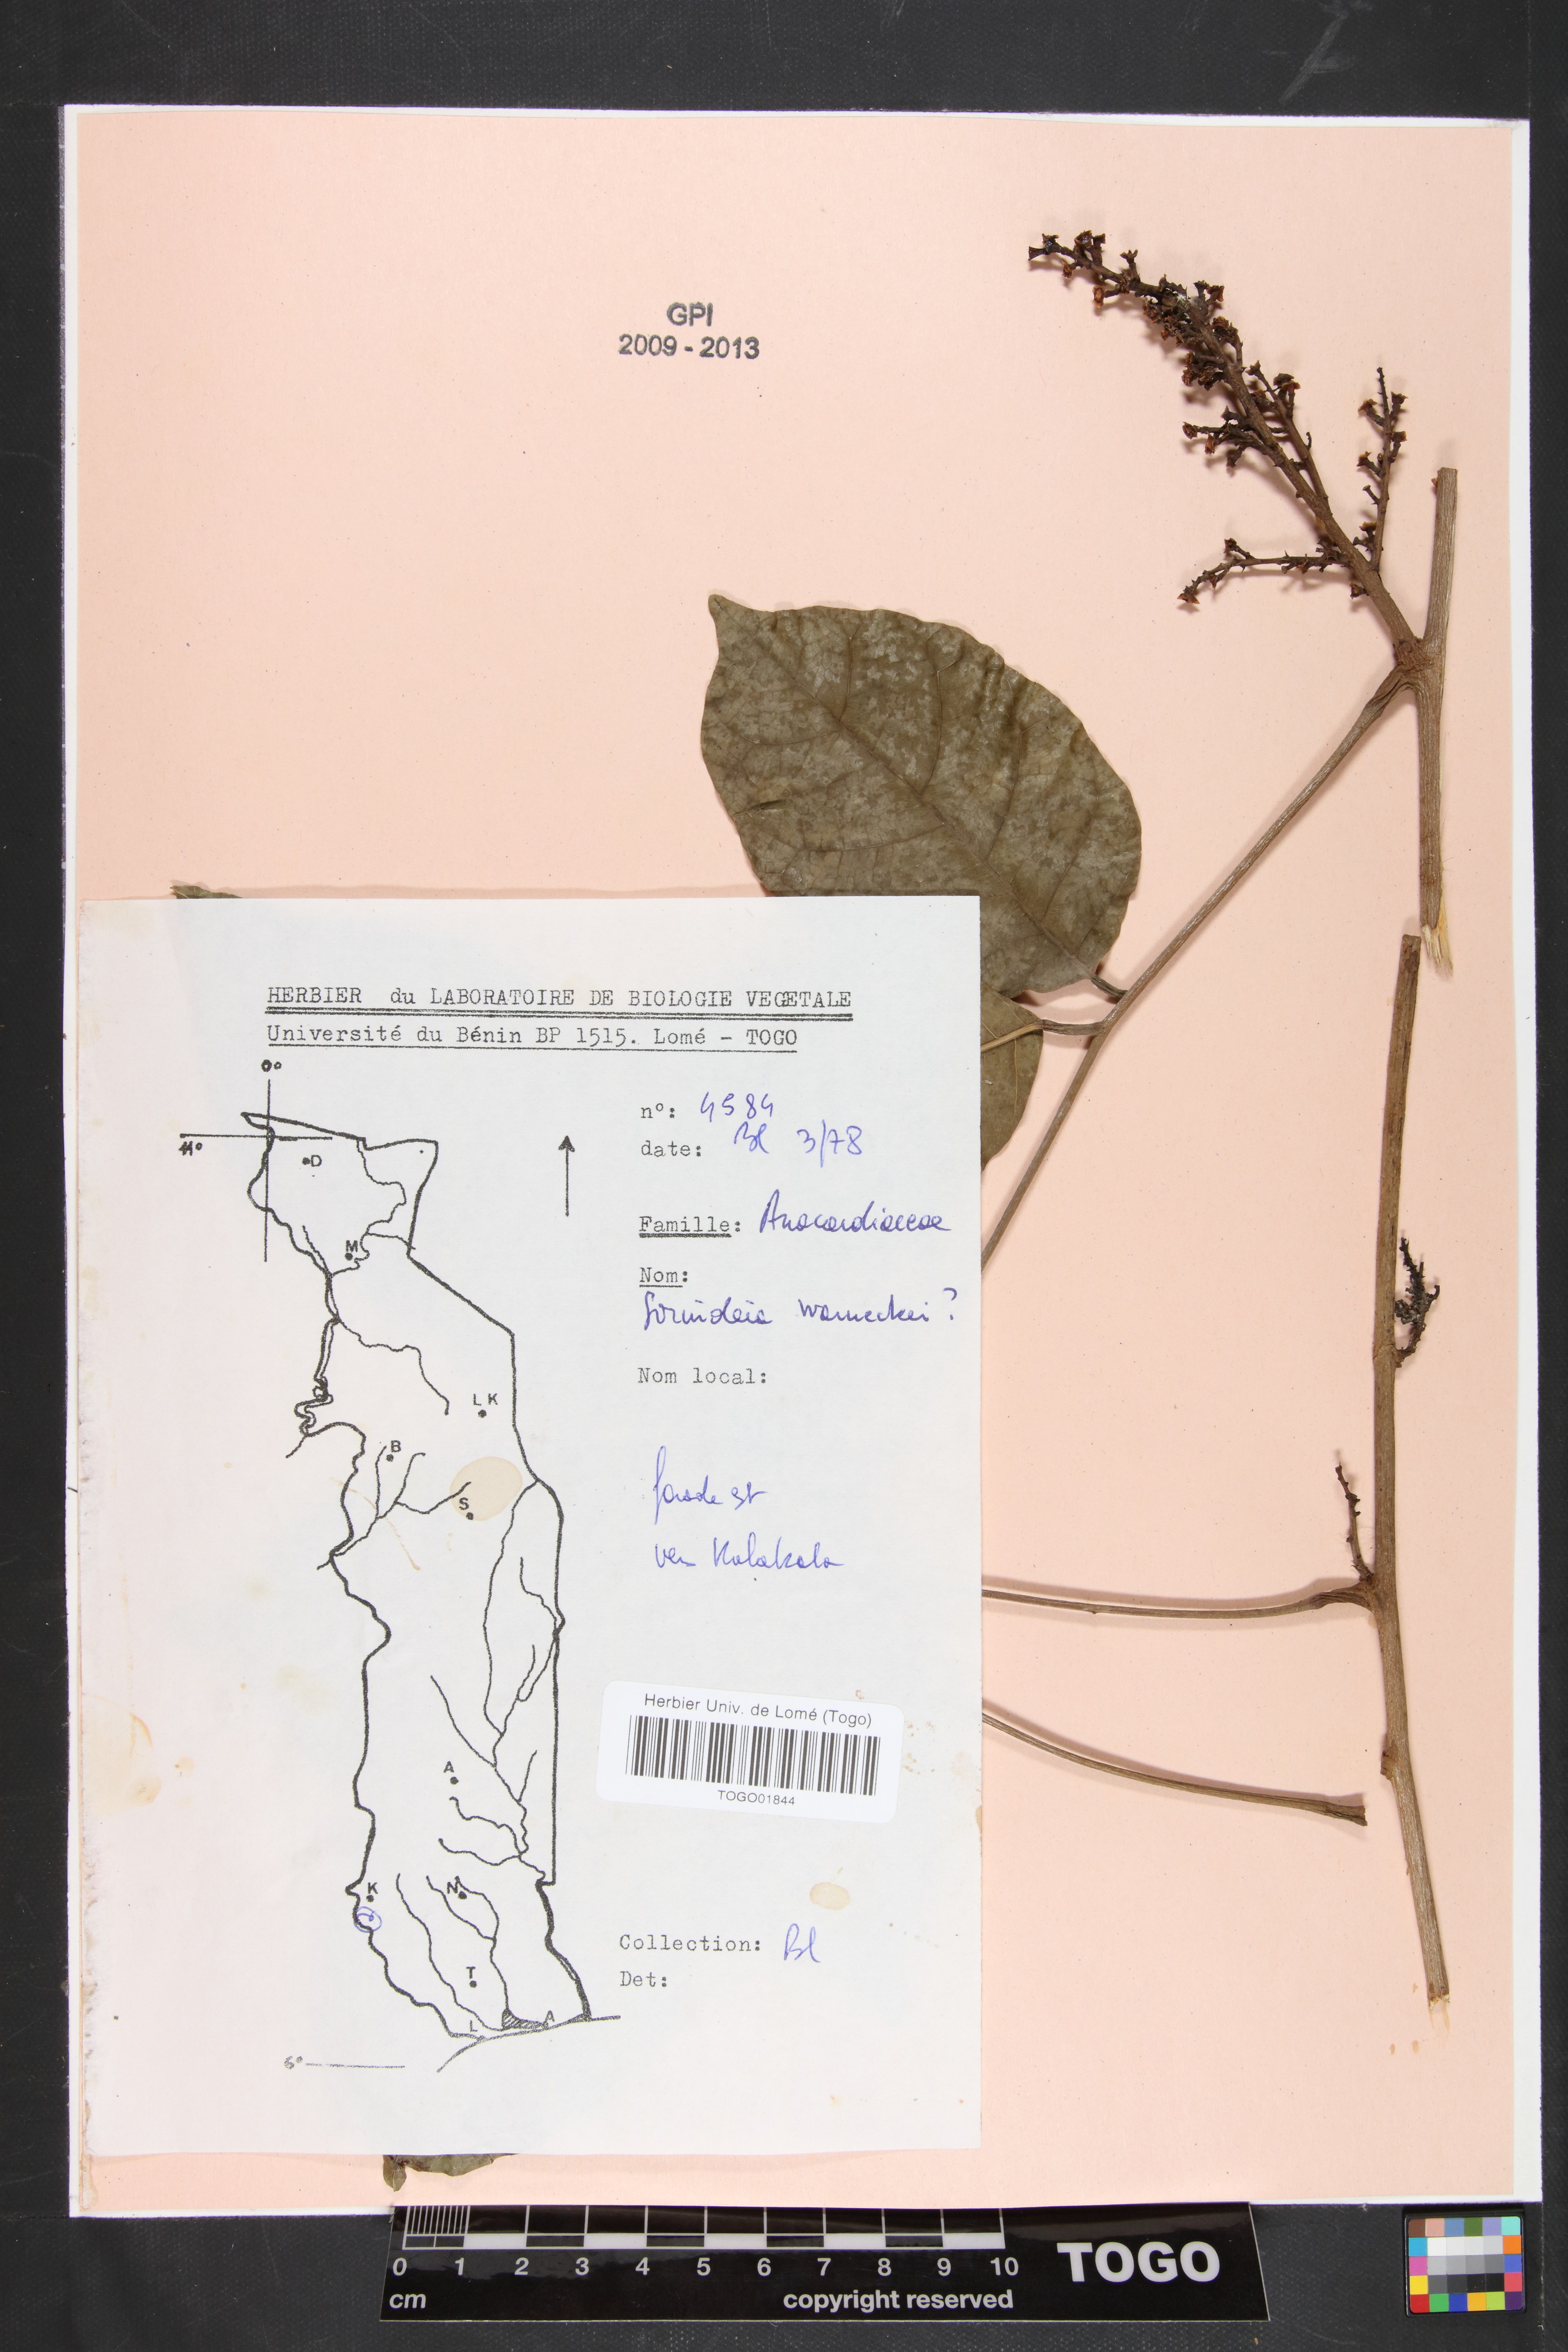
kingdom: Plantae
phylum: Tracheophyta
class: Magnoliopsida
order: Sapindales
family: Anacardiaceae
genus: Sorindeia
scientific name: Sorindeia grandifolia
